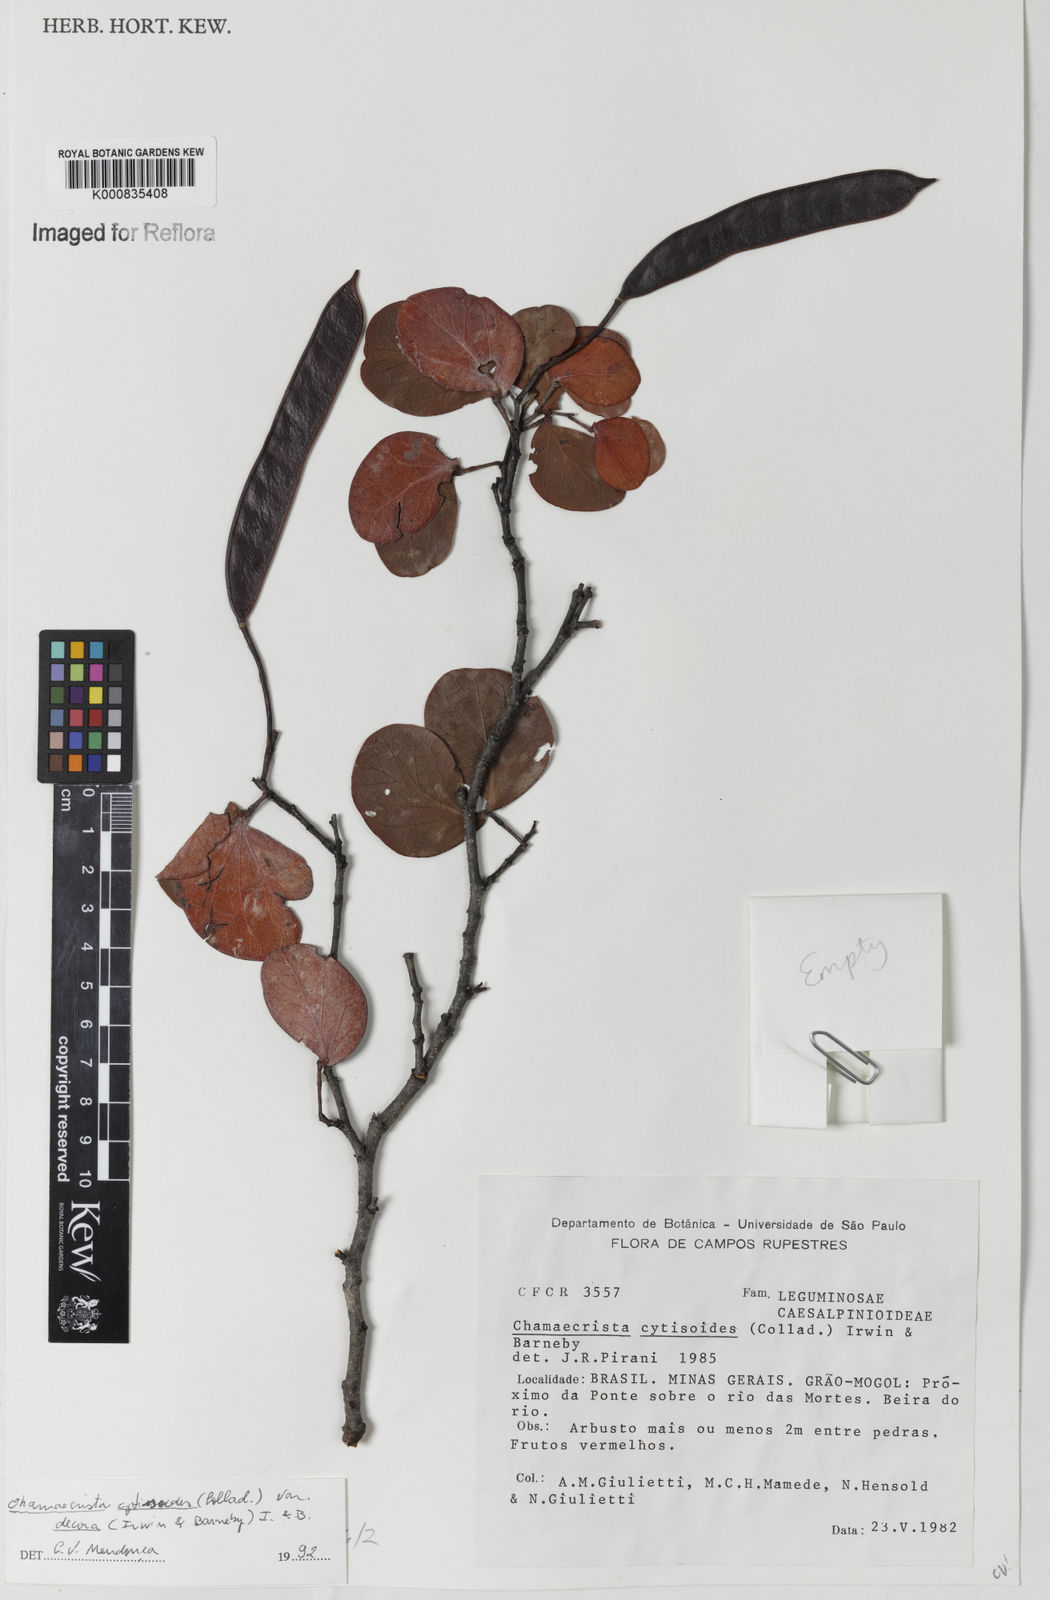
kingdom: Plantae
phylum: Tracheophyta
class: Magnoliopsida
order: Fabales
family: Fabaceae
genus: Chamaecrista
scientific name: Chamaecrista decora
